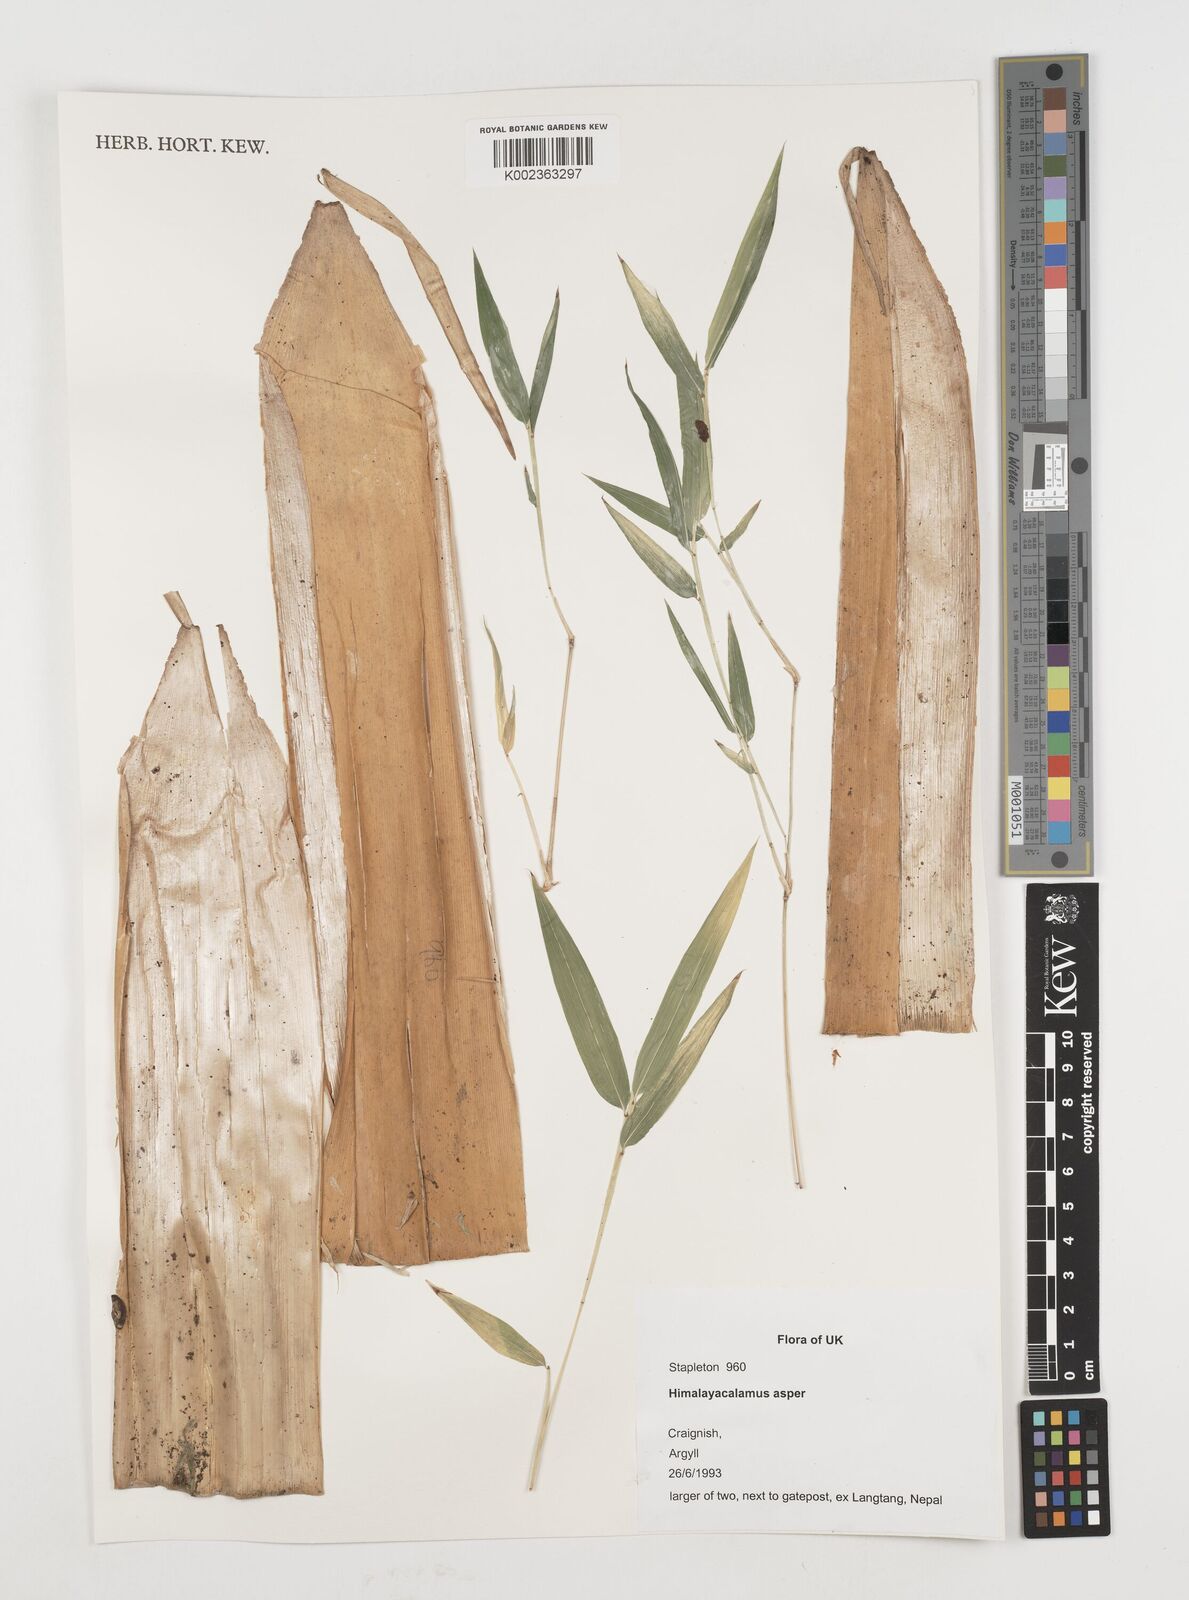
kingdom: Plantae
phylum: Tracheophyta
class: Liliopsida
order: Poales
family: Poaceae
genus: Himalayacalamus
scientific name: Himalayacalamus asper
